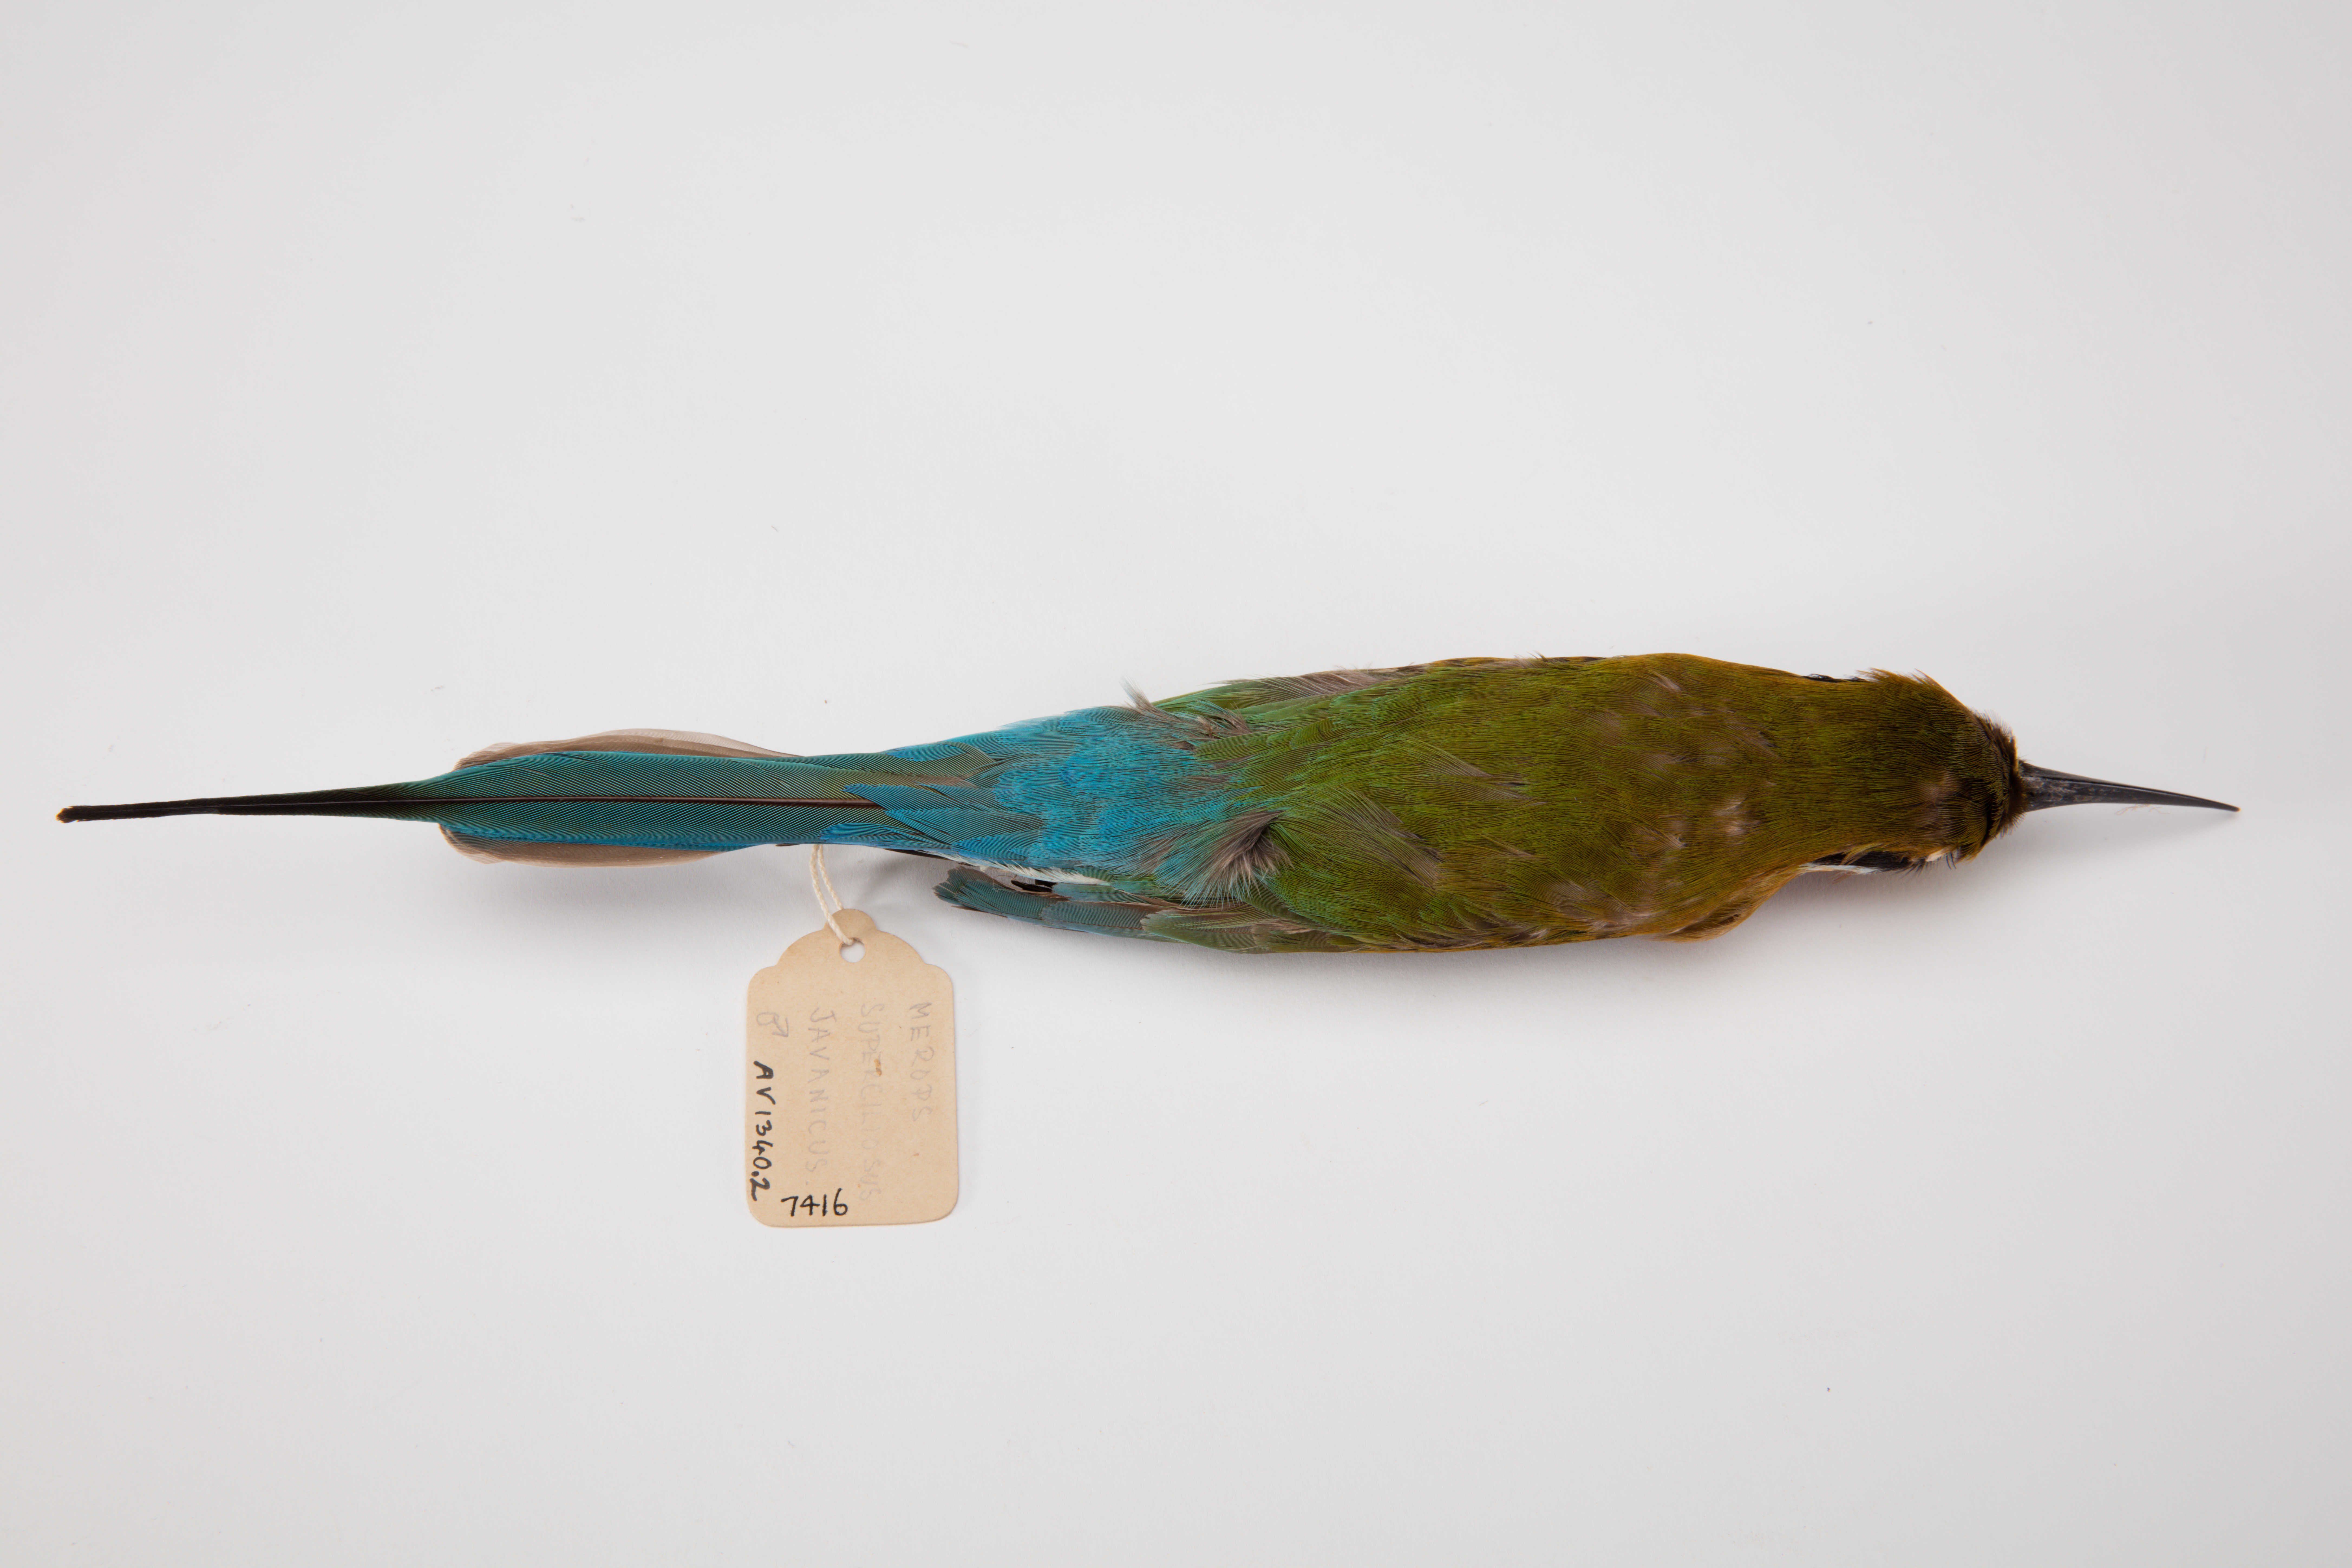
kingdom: Animalia
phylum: Chordata
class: Aves
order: Coraciiformes
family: Meropidae
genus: Merops
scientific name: Merops superciliosus
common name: Olive bee-eater
